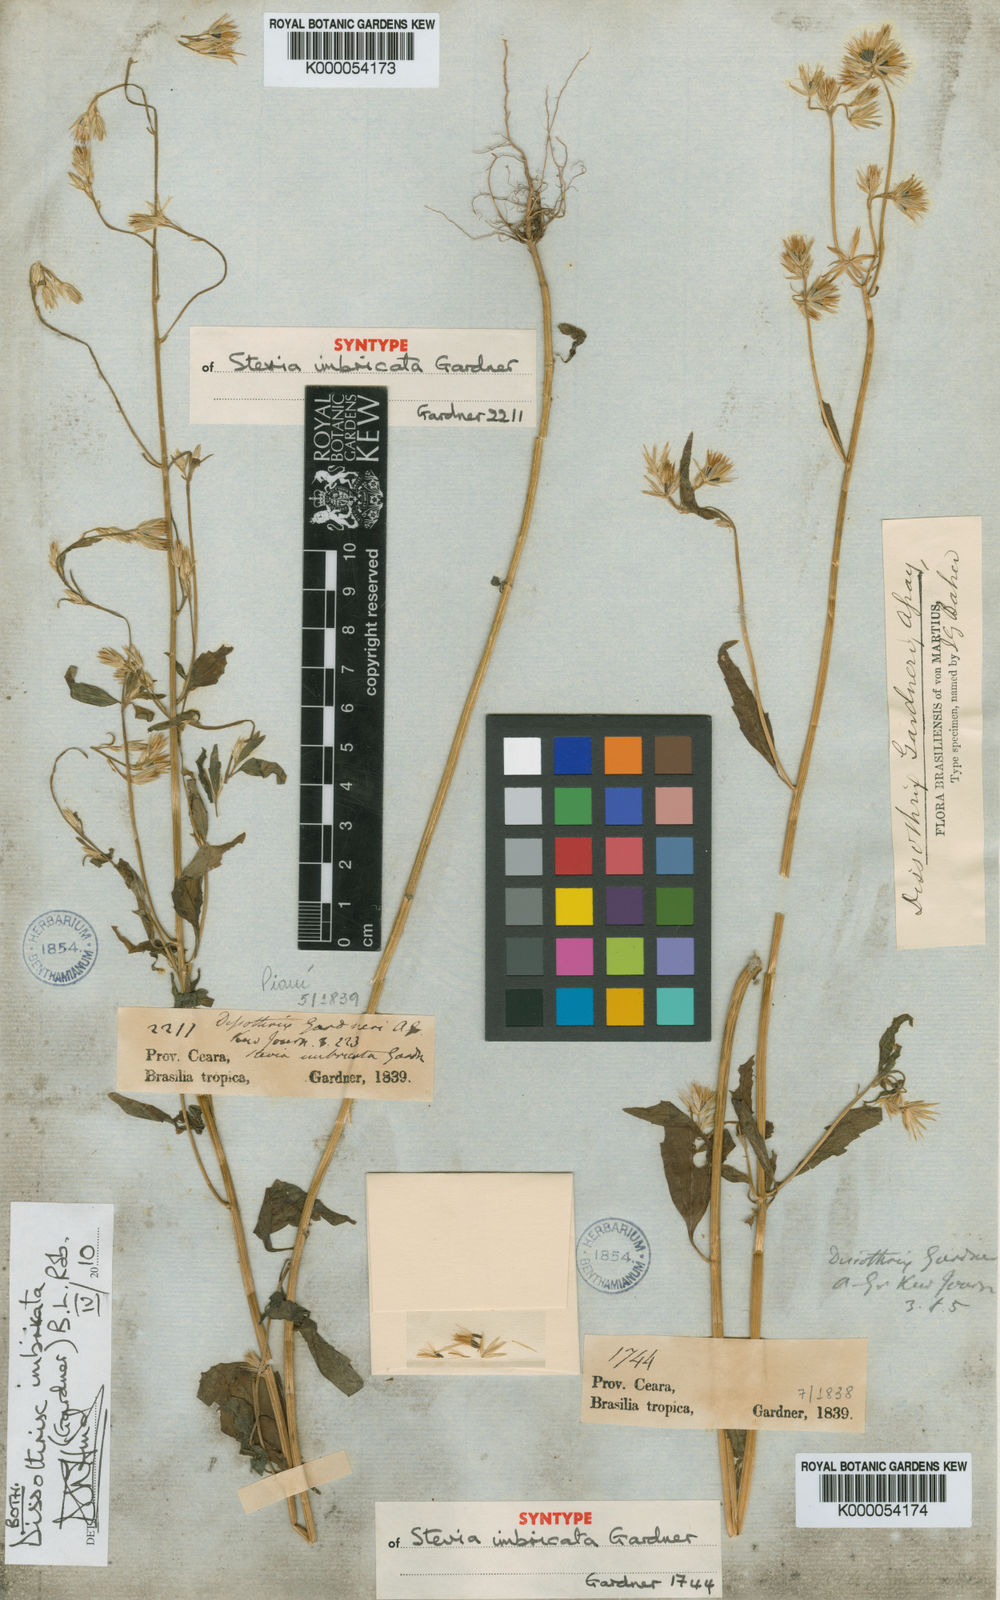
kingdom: Plantae
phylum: Tracheophyta
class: Magnoliopsida
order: Asterales
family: Asteraceae
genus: Dissothrix
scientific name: Dissothrix imbricata
